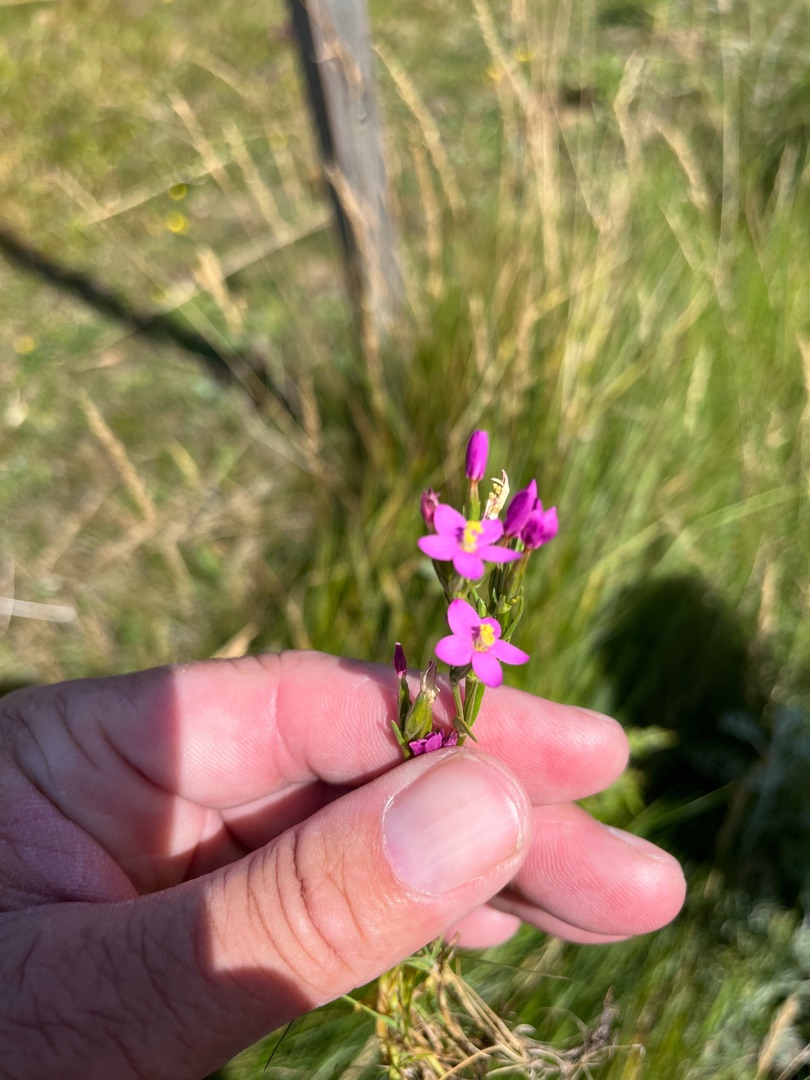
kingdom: Plantae
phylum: Tracheophyta
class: Magnoliopsida
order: Gentianales
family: Gentianaceae
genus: Centaurium
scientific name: Centaurium pulchellum
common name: Liden tusindgylden
